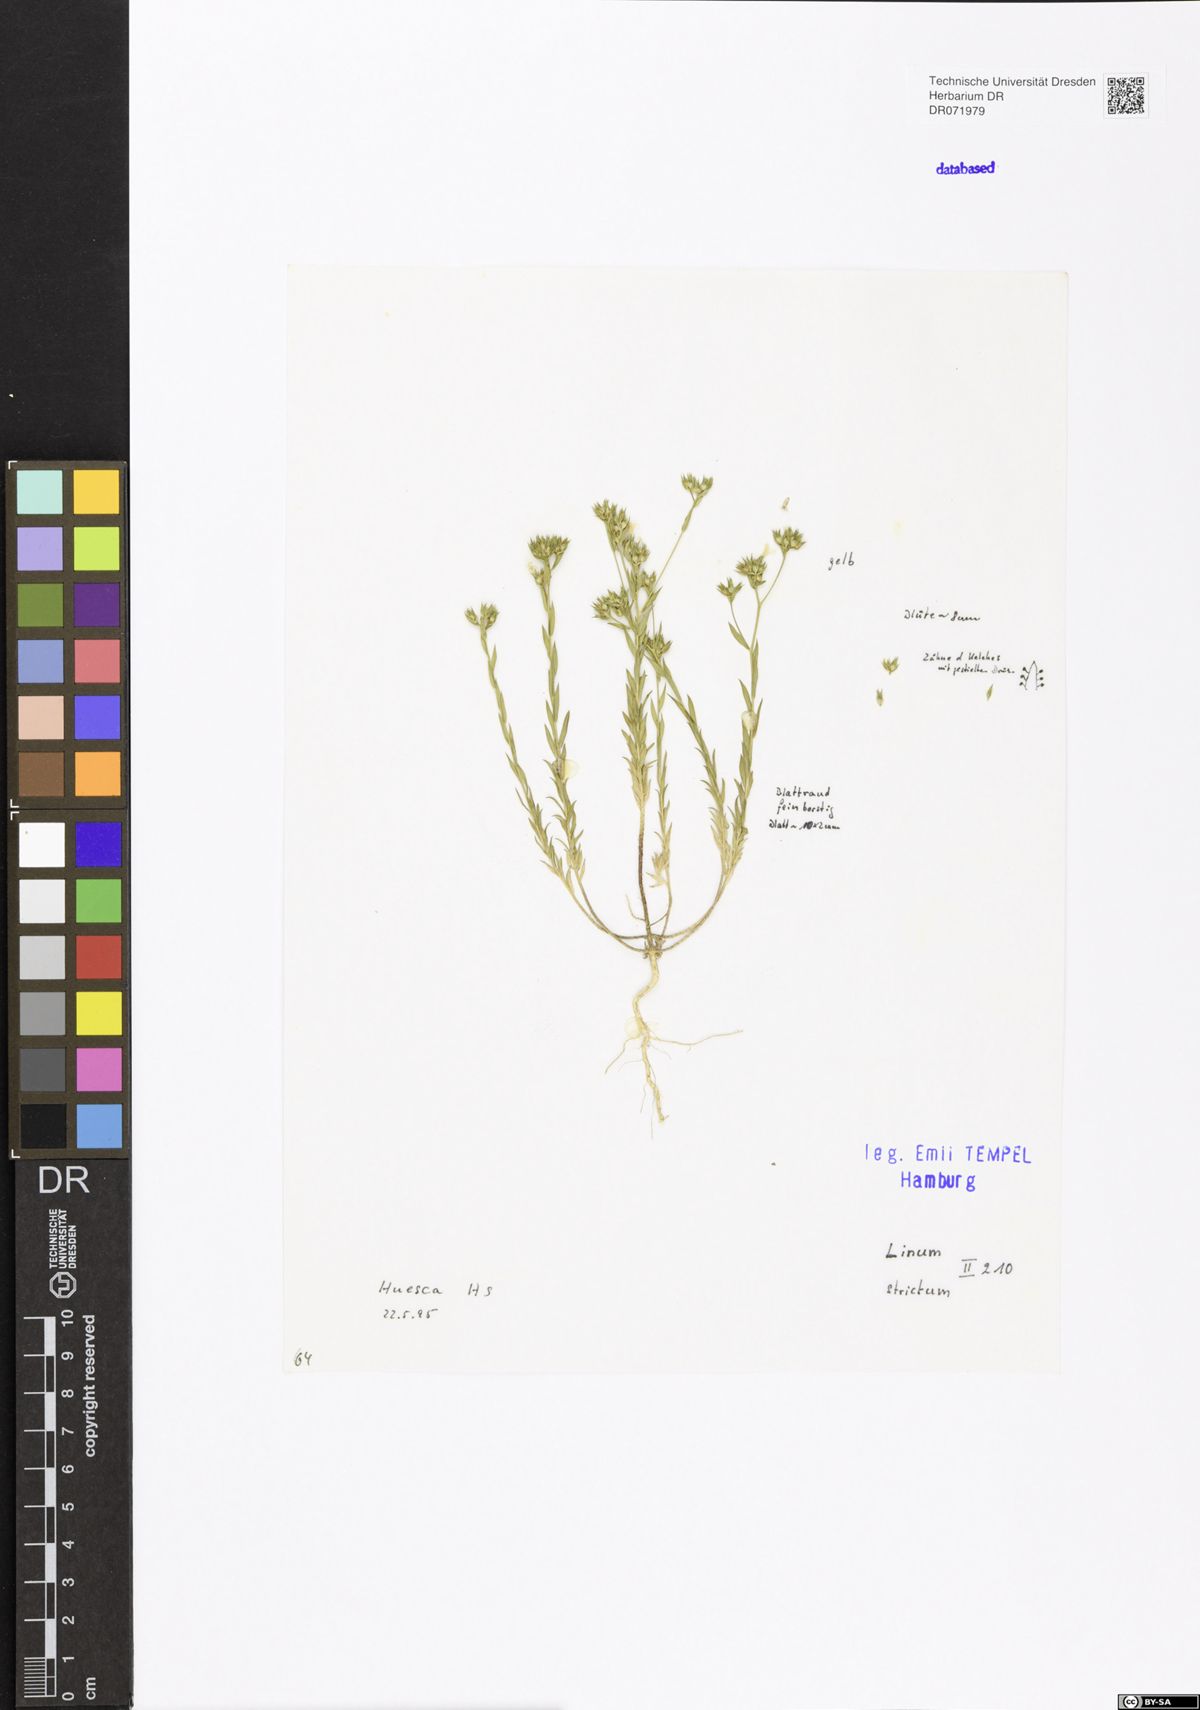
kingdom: Plantae
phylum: Tracheophyta
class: Magnoliopsida
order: Malpighiales
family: Linaceae
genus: Linum
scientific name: Linum strictum
